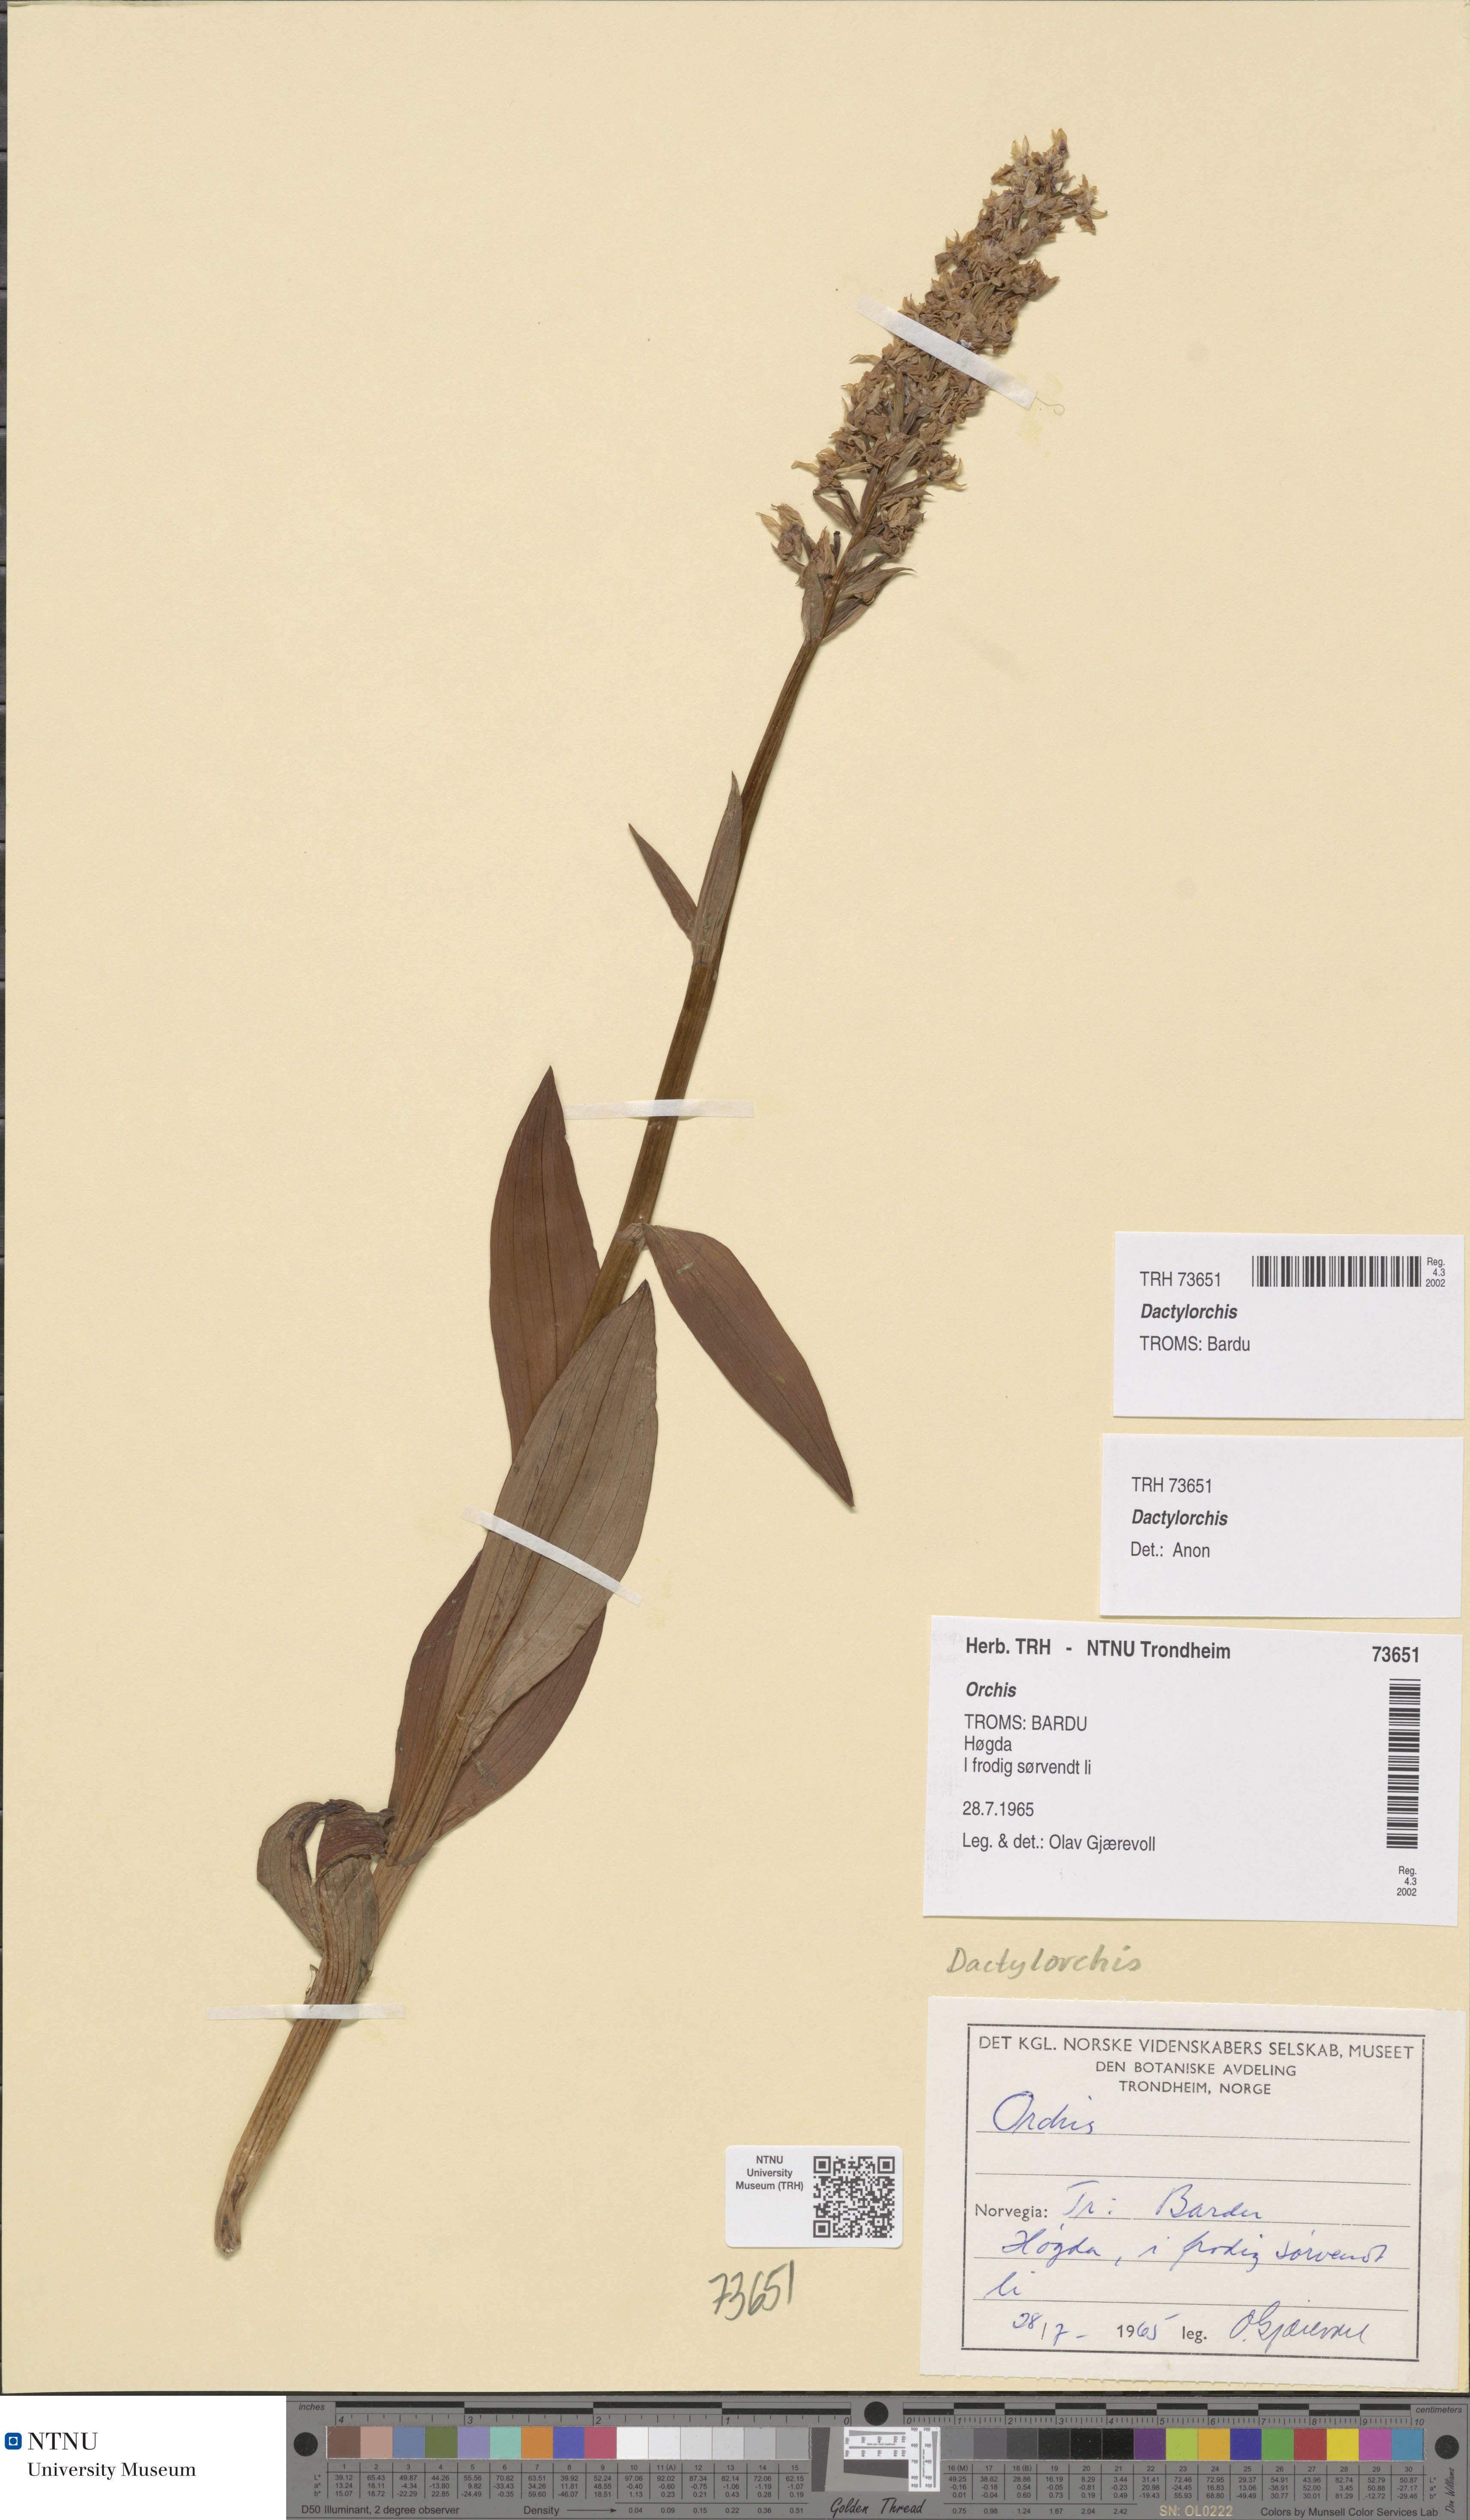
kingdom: Plantae
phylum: Tracheophyta
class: Liliopsida
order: Asparagales
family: Orchidaceae
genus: Dactylorhiza
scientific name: Dactylorhiza
